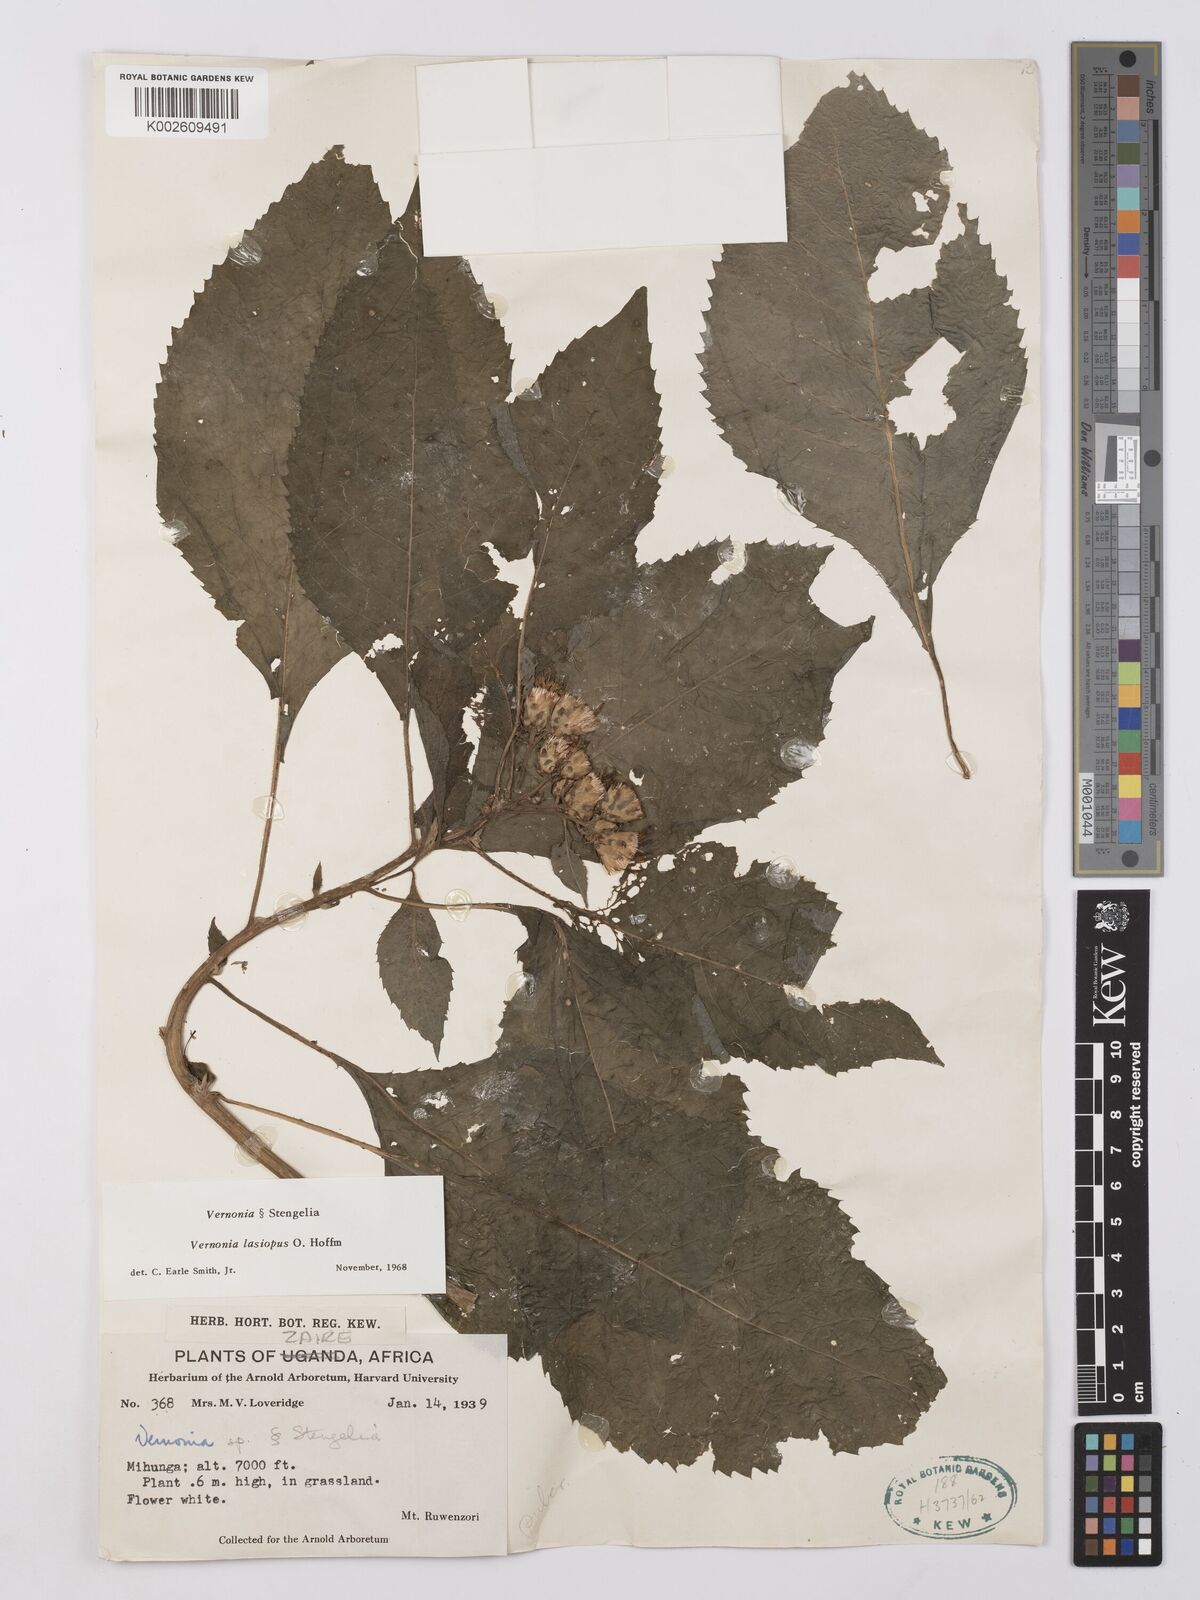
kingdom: Plantae
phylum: Tracheophyta
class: Magnoliopsida
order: Asterales
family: Asteraceae
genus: Vernonia
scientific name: Vernonia
